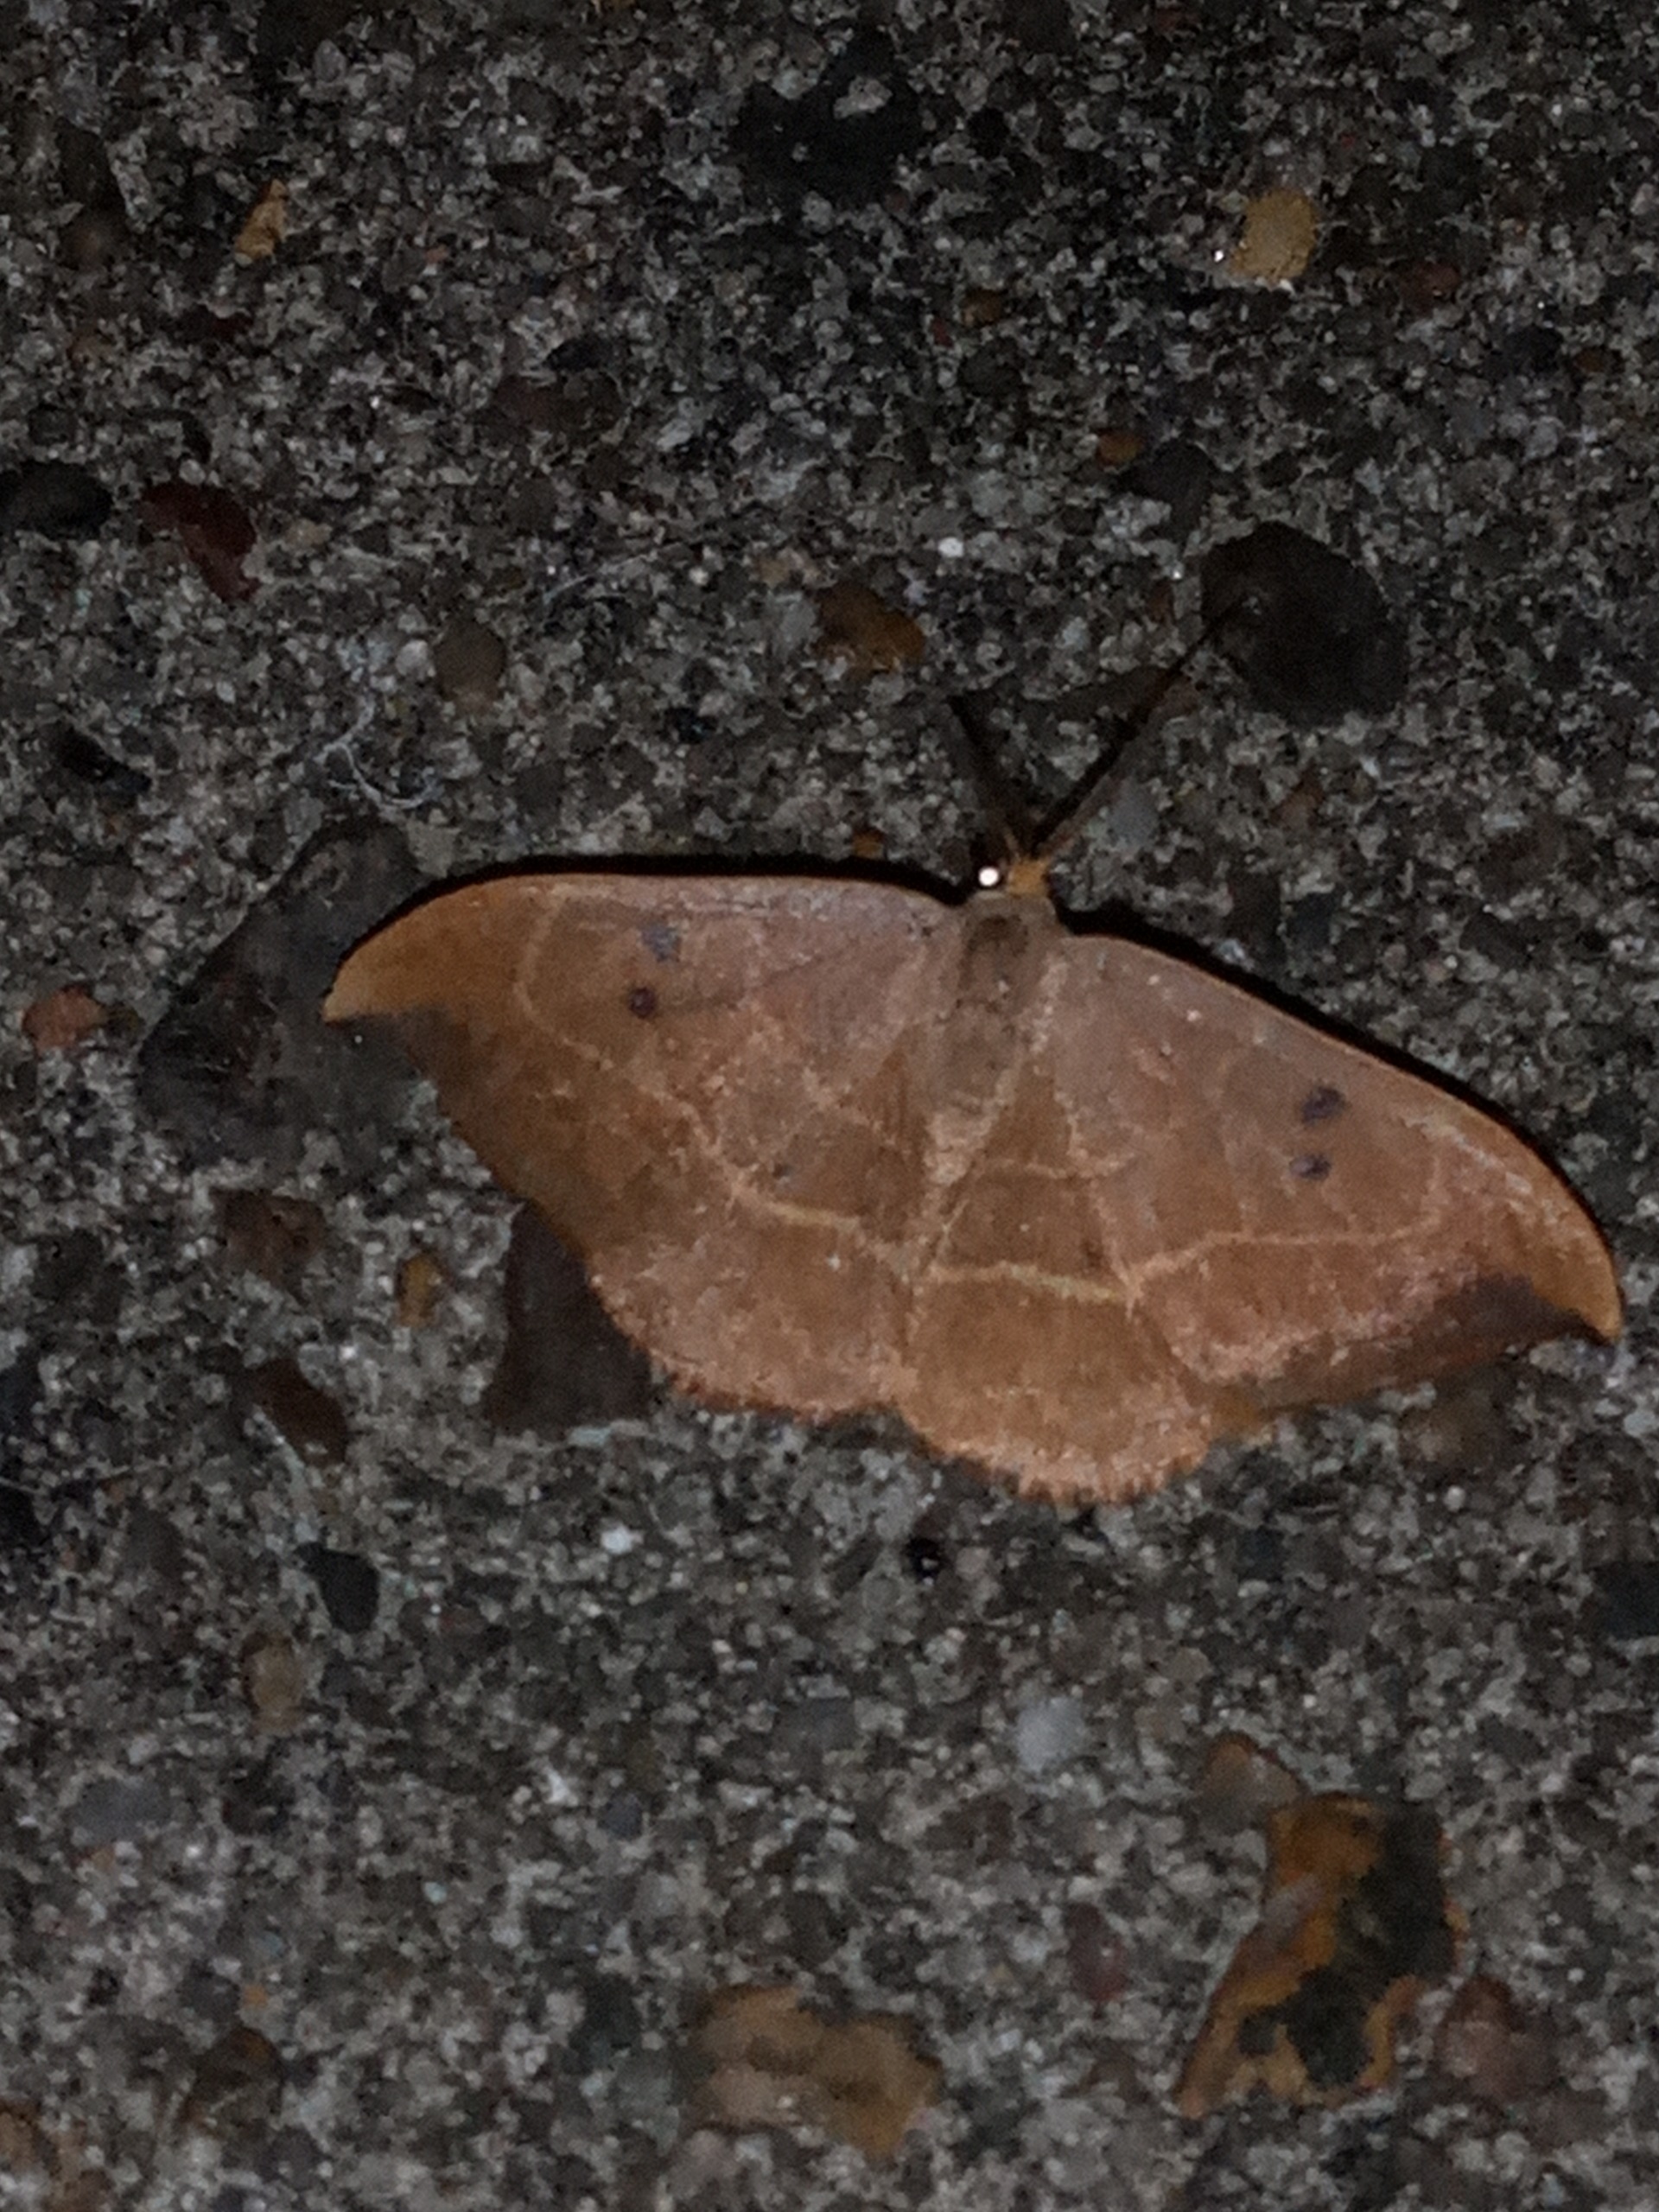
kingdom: Animalia
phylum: Arthropoda
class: Insecta
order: Lepidoptera
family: Drepanidae
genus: Watsonalla
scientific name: Watsonalla binaria
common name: Toplettet seglvinge
